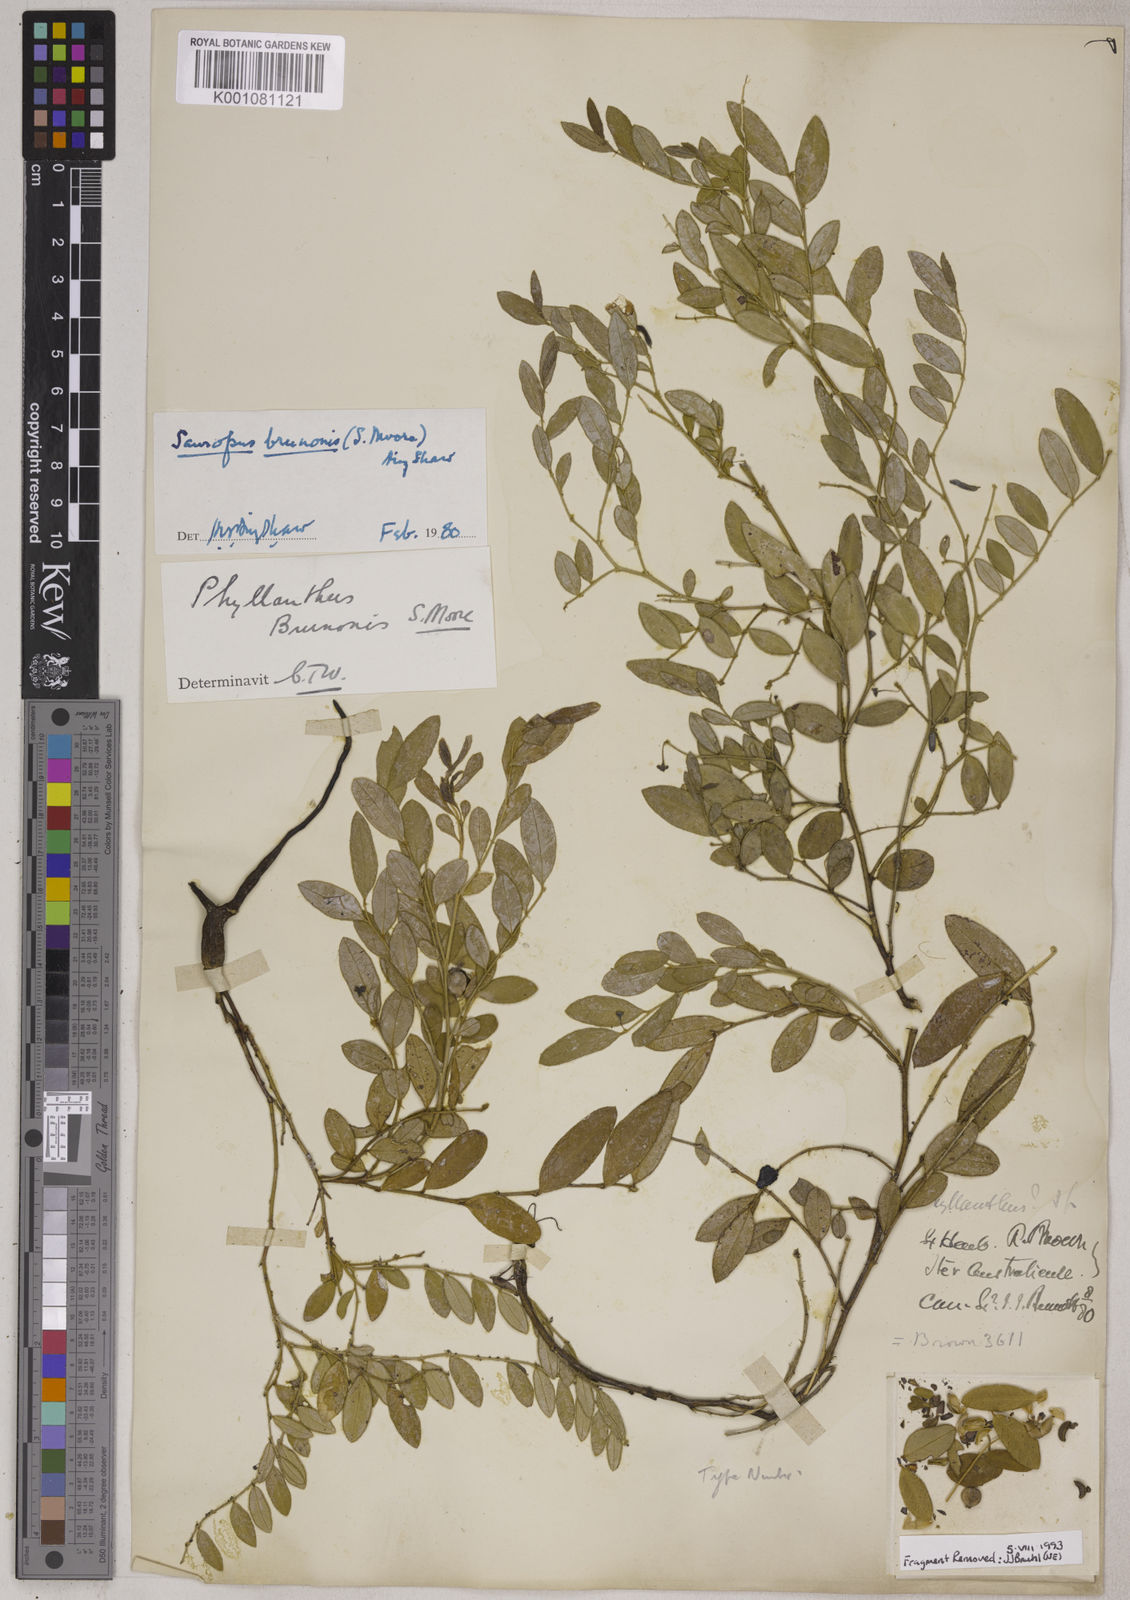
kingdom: Plantae
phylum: Tracheophyta
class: Magnoliopsida
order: Malpighiales
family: Phyllanthaceae
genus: Breynia
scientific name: Breynia Sauropus brunonis
